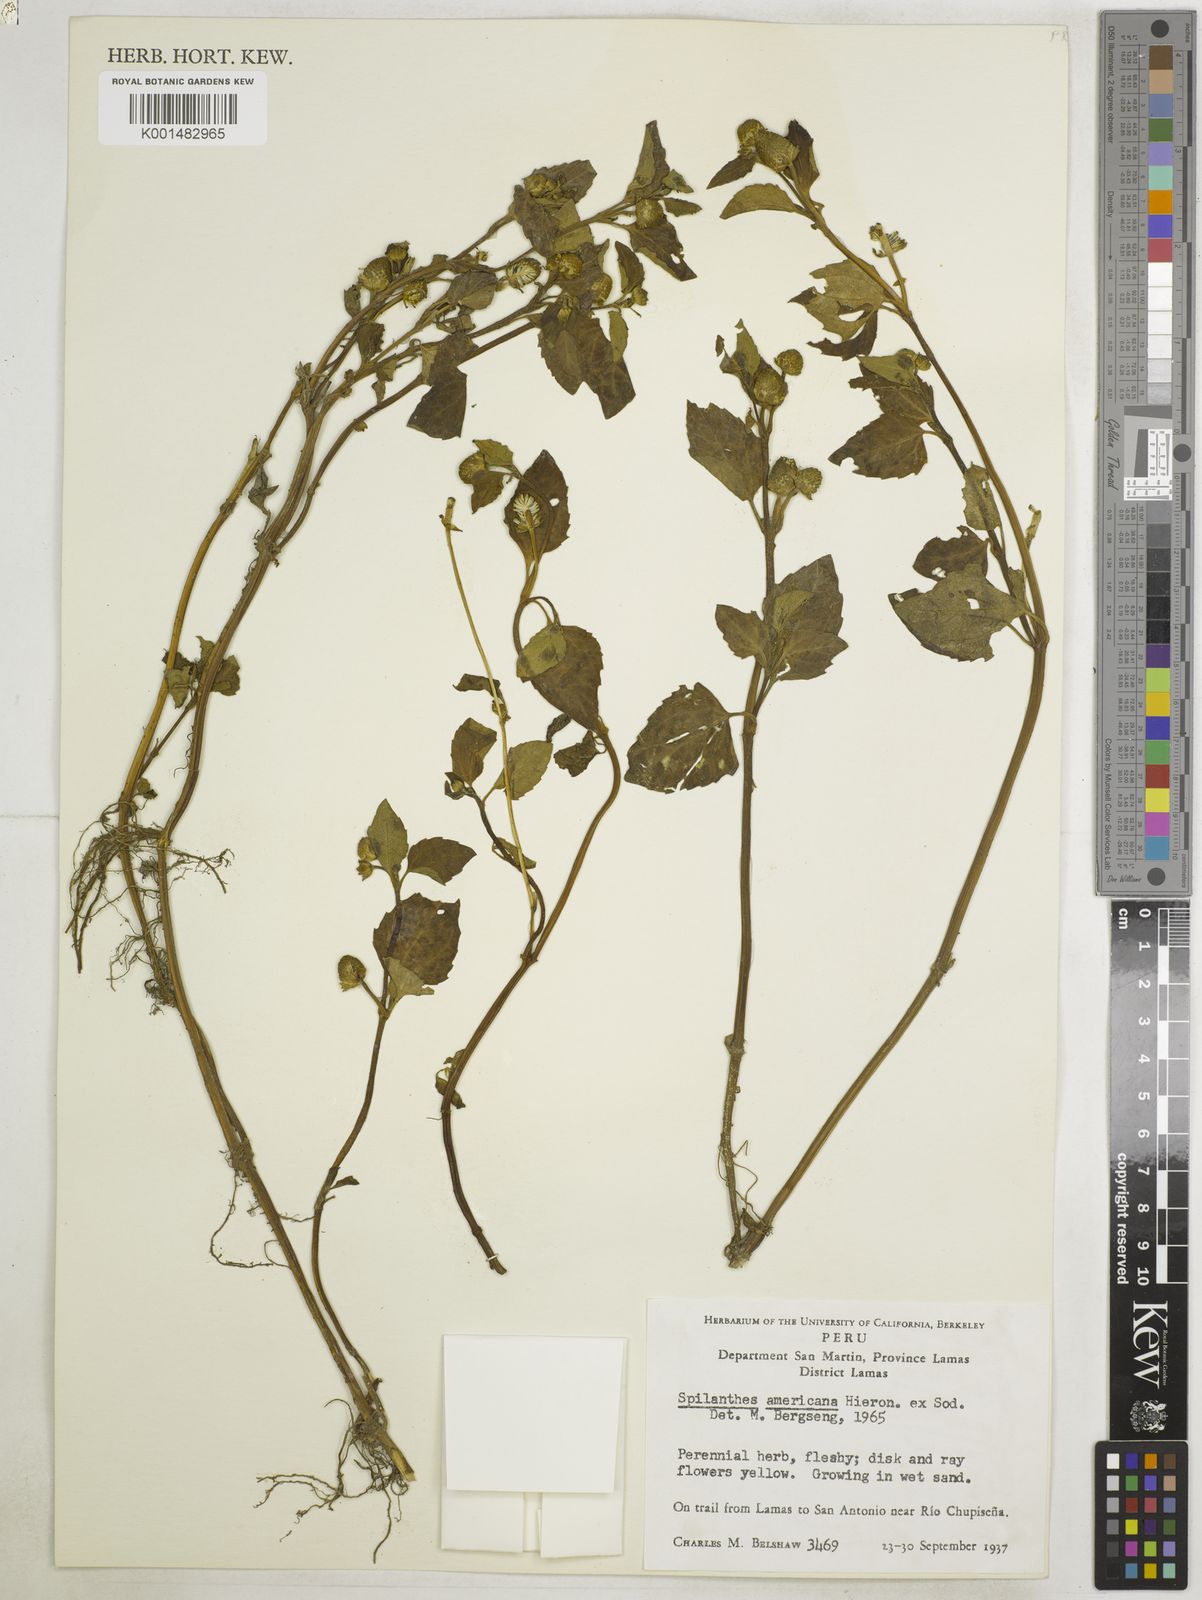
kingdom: Plantae
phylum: Tracheophyta
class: Magnoliopsida
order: Asterales
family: Asteraceae
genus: Heliopsis
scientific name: Heliopsis buphthalmoides
